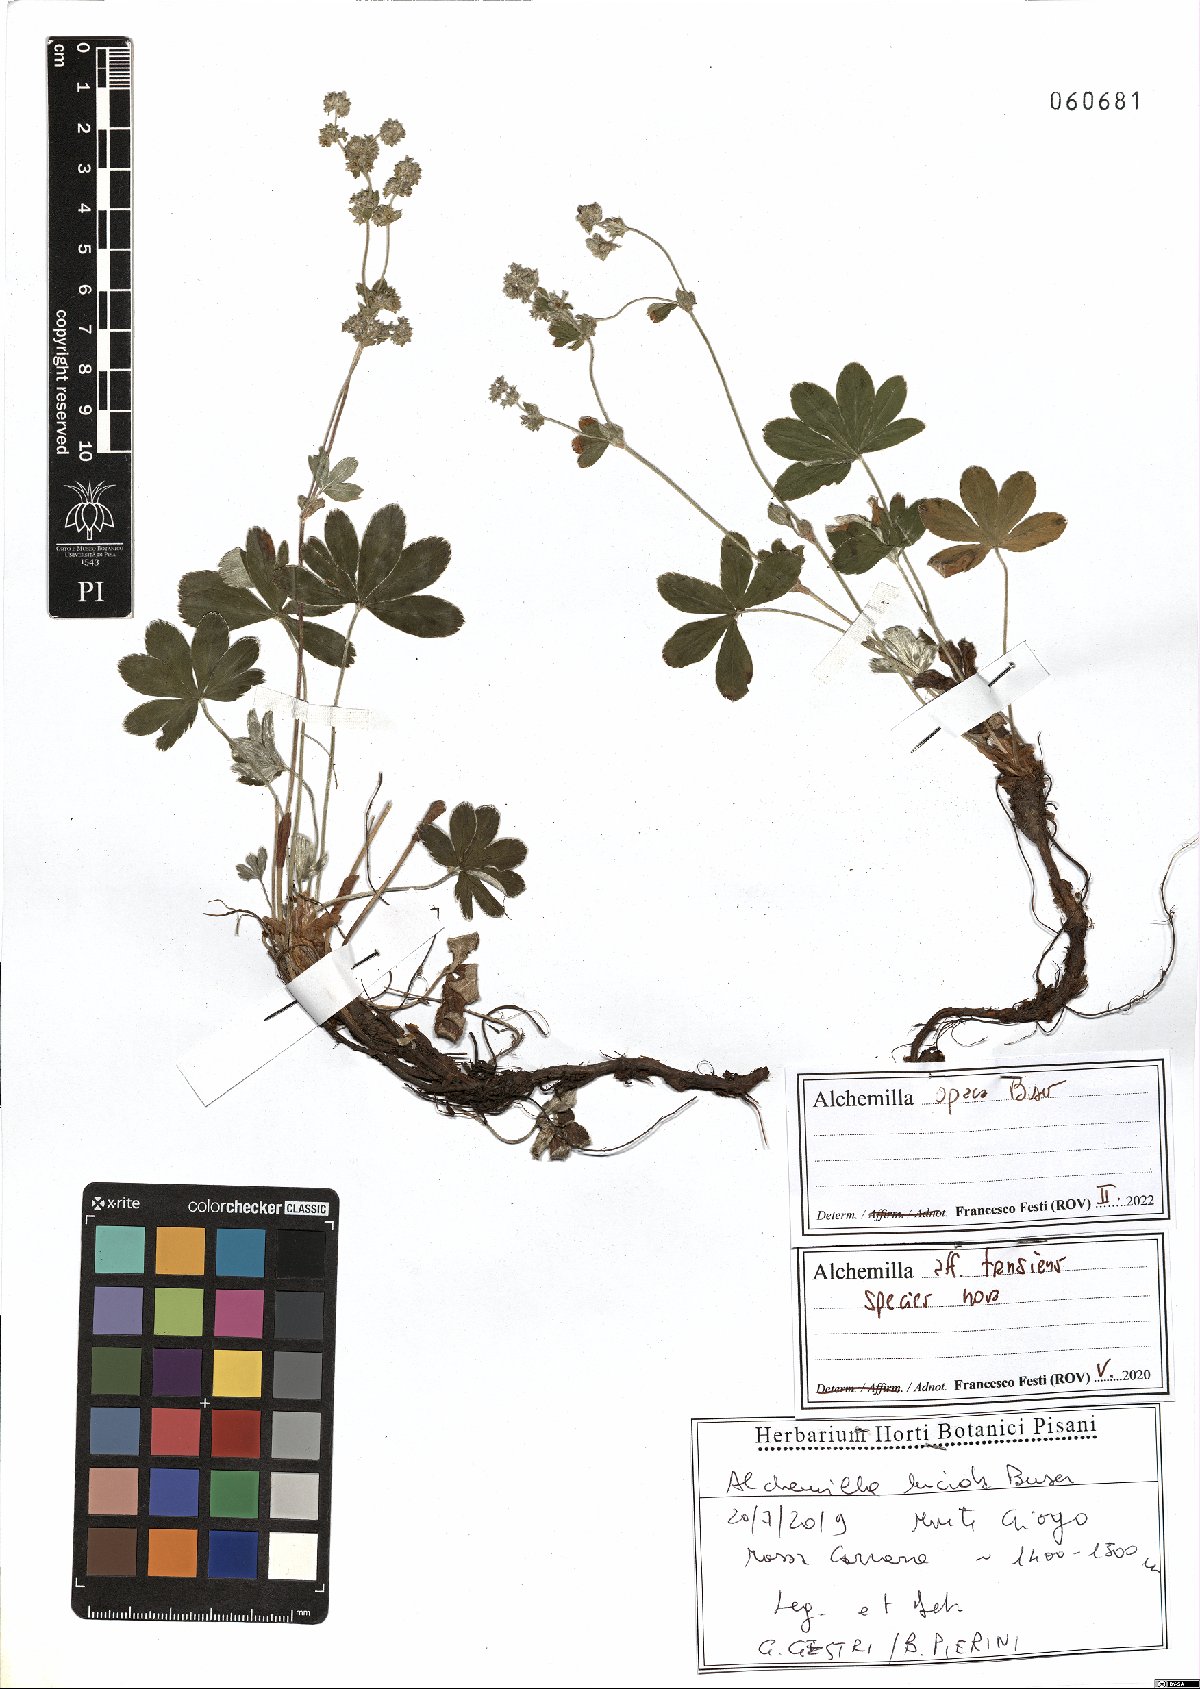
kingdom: Plantae
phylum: Tracheophyta
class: Magnoliopsida
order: Rosales
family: Rosaceae
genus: Alchemilla
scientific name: Alchemilla opaca
